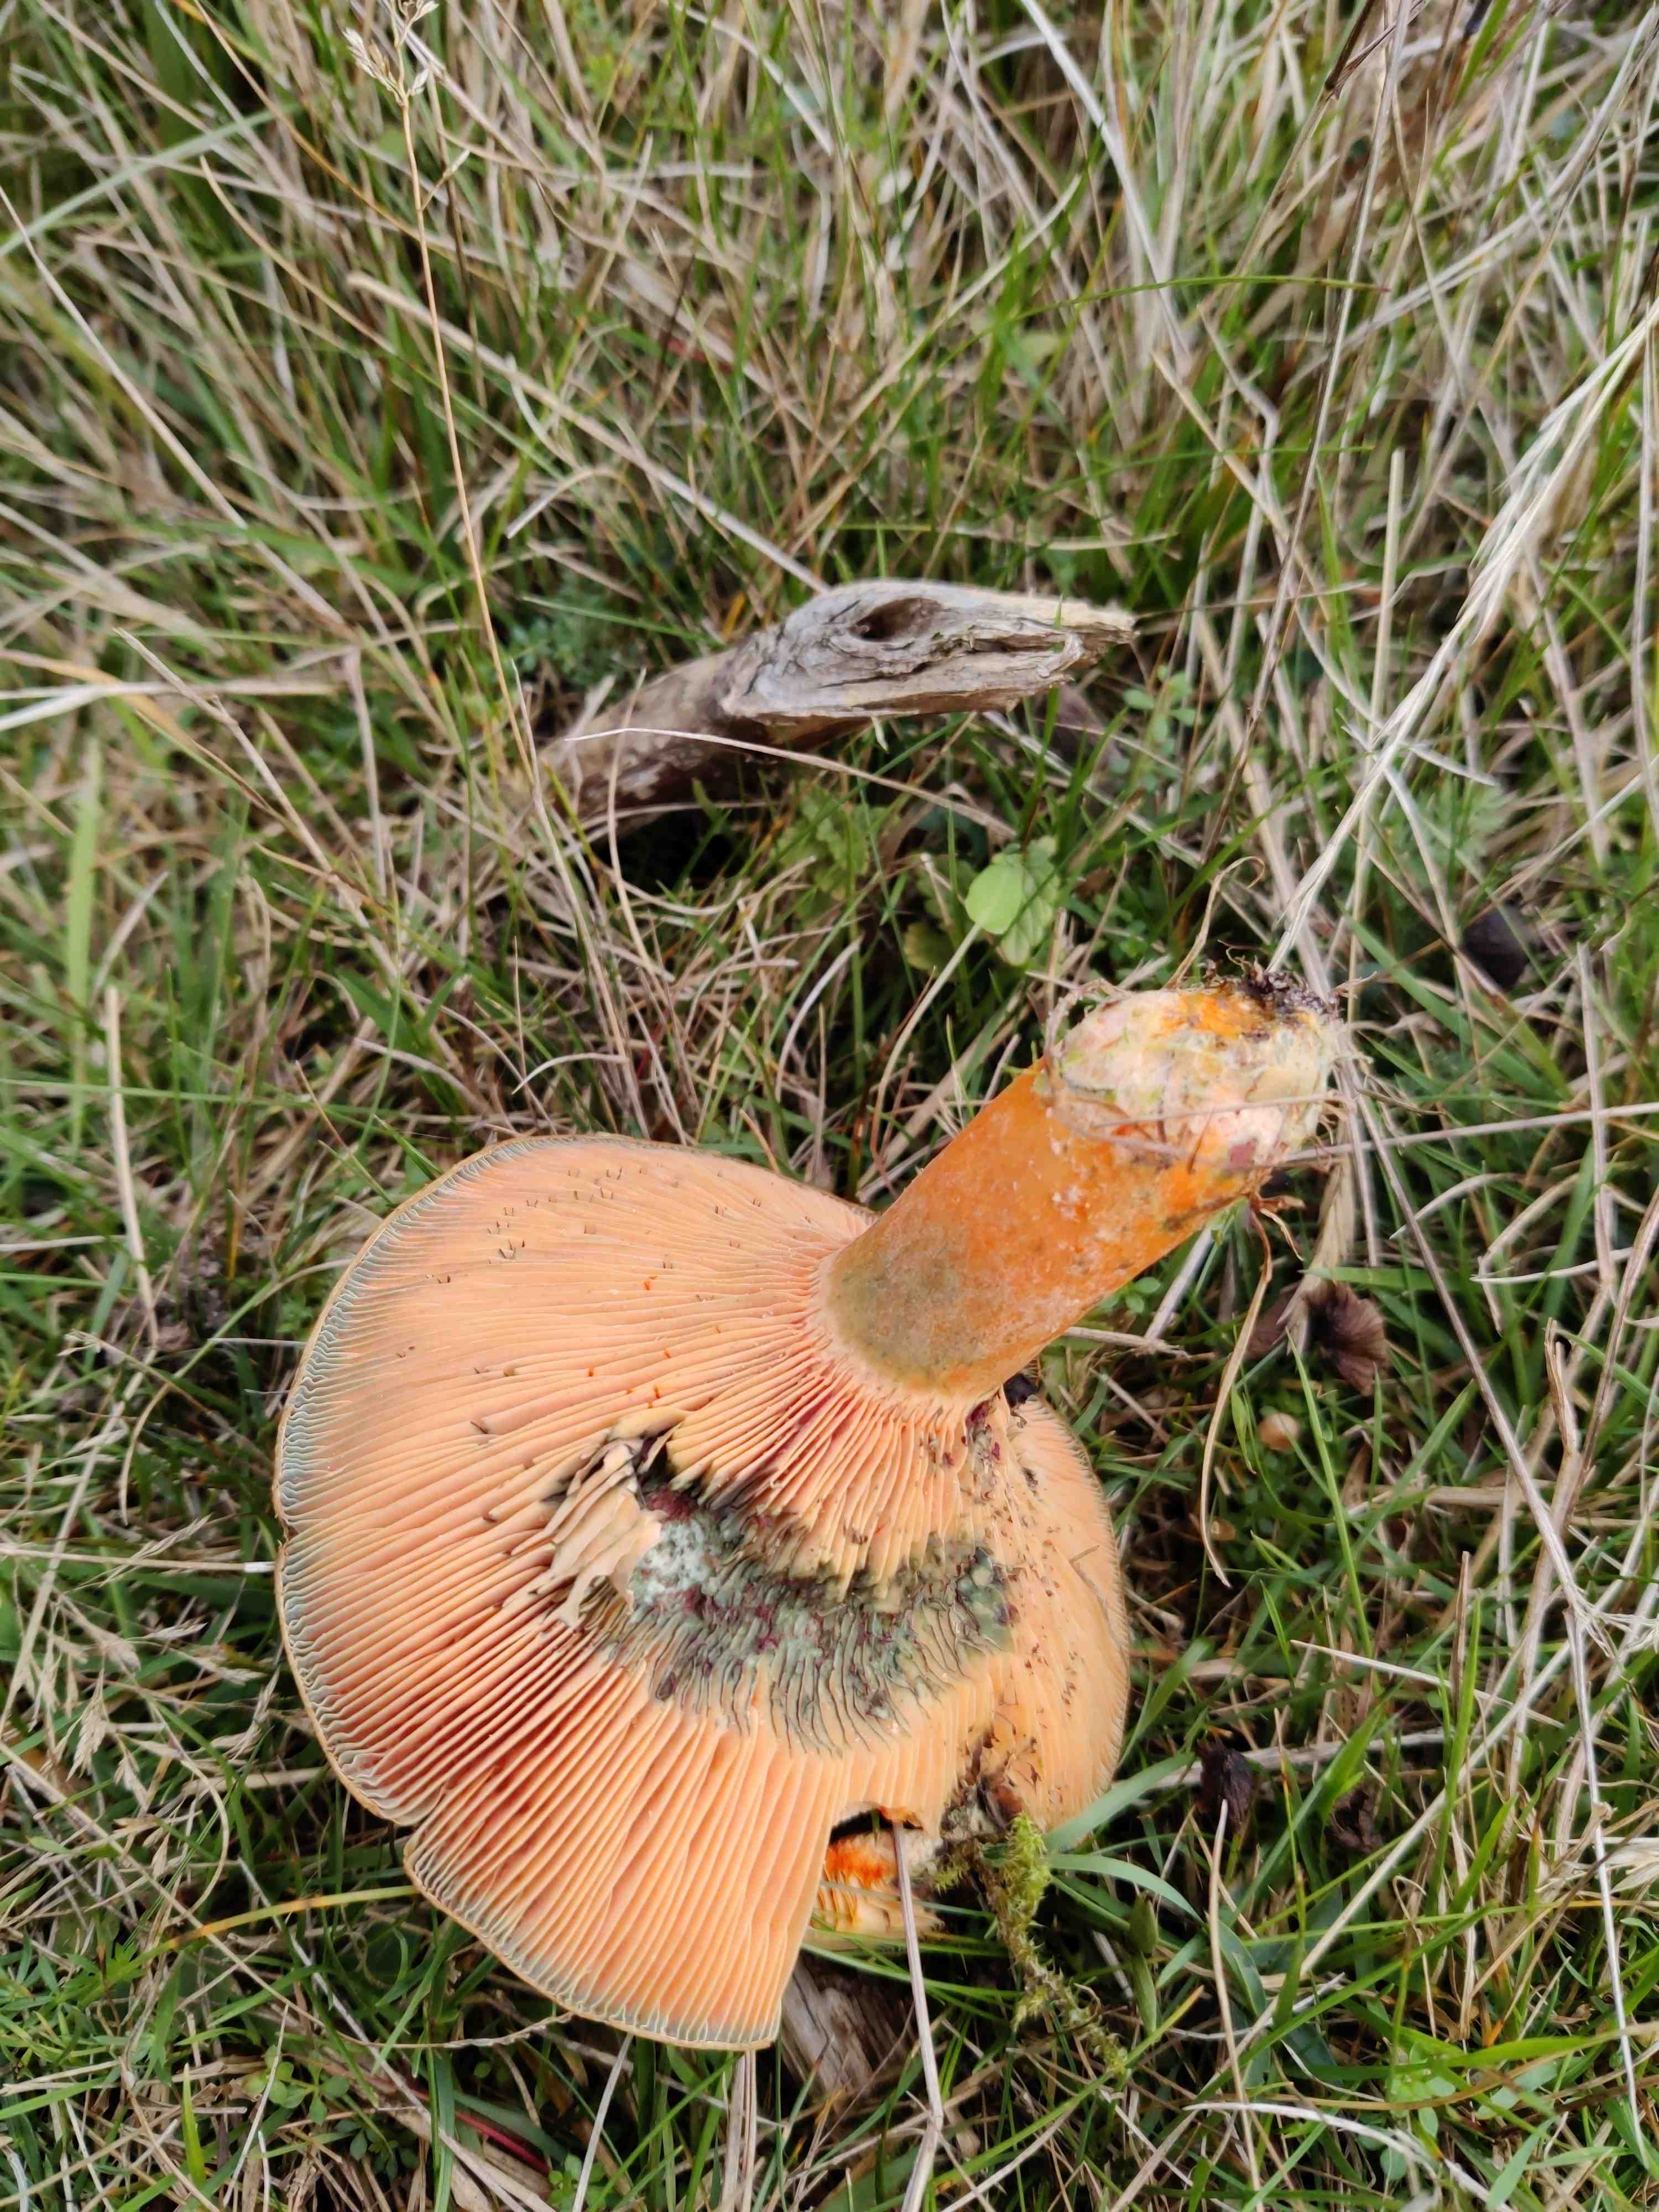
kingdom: Fungi
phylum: Basidiomycota
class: Agaricomycetes
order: Russulales
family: Russulaceae
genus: Lactarius
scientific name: Lactarius deterrimus
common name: gran-mælkehat
